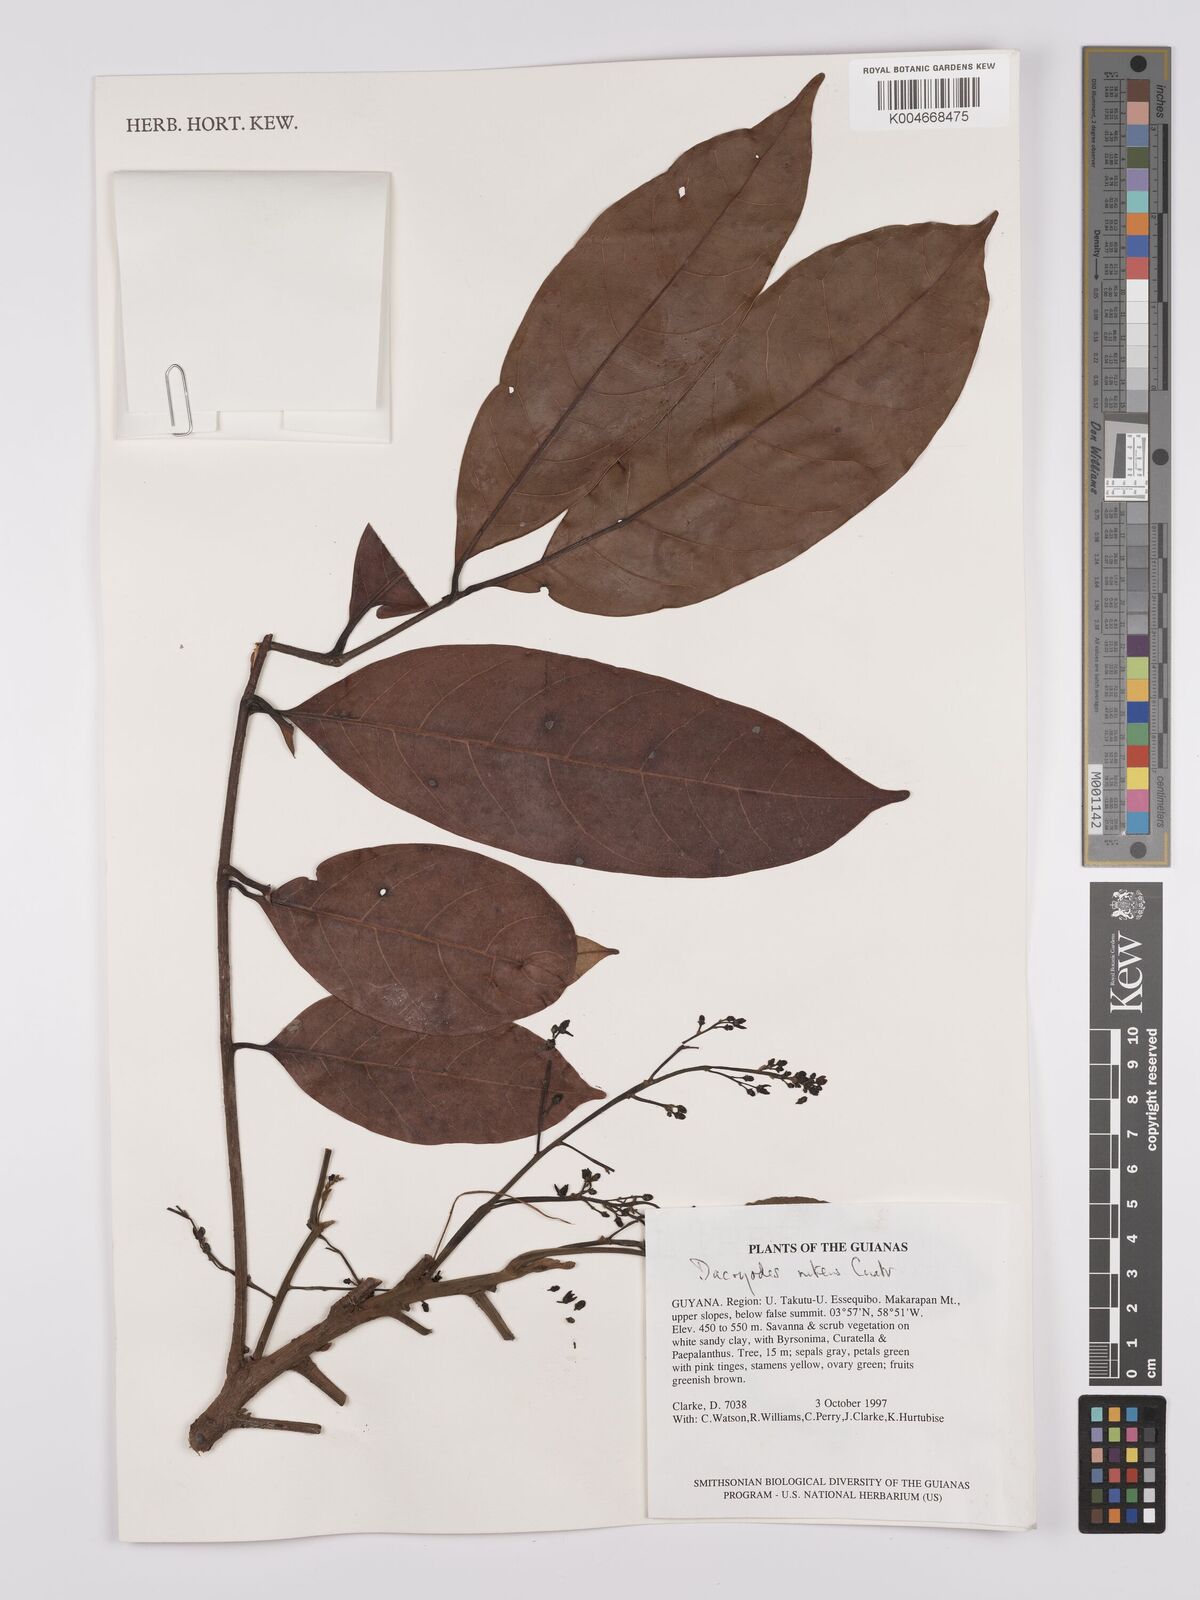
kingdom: Plantae
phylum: Tracheophyta
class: Magnoliopsida
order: Sapindales
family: Burseraceae
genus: Dacryodes
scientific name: Dacryodes nitens
